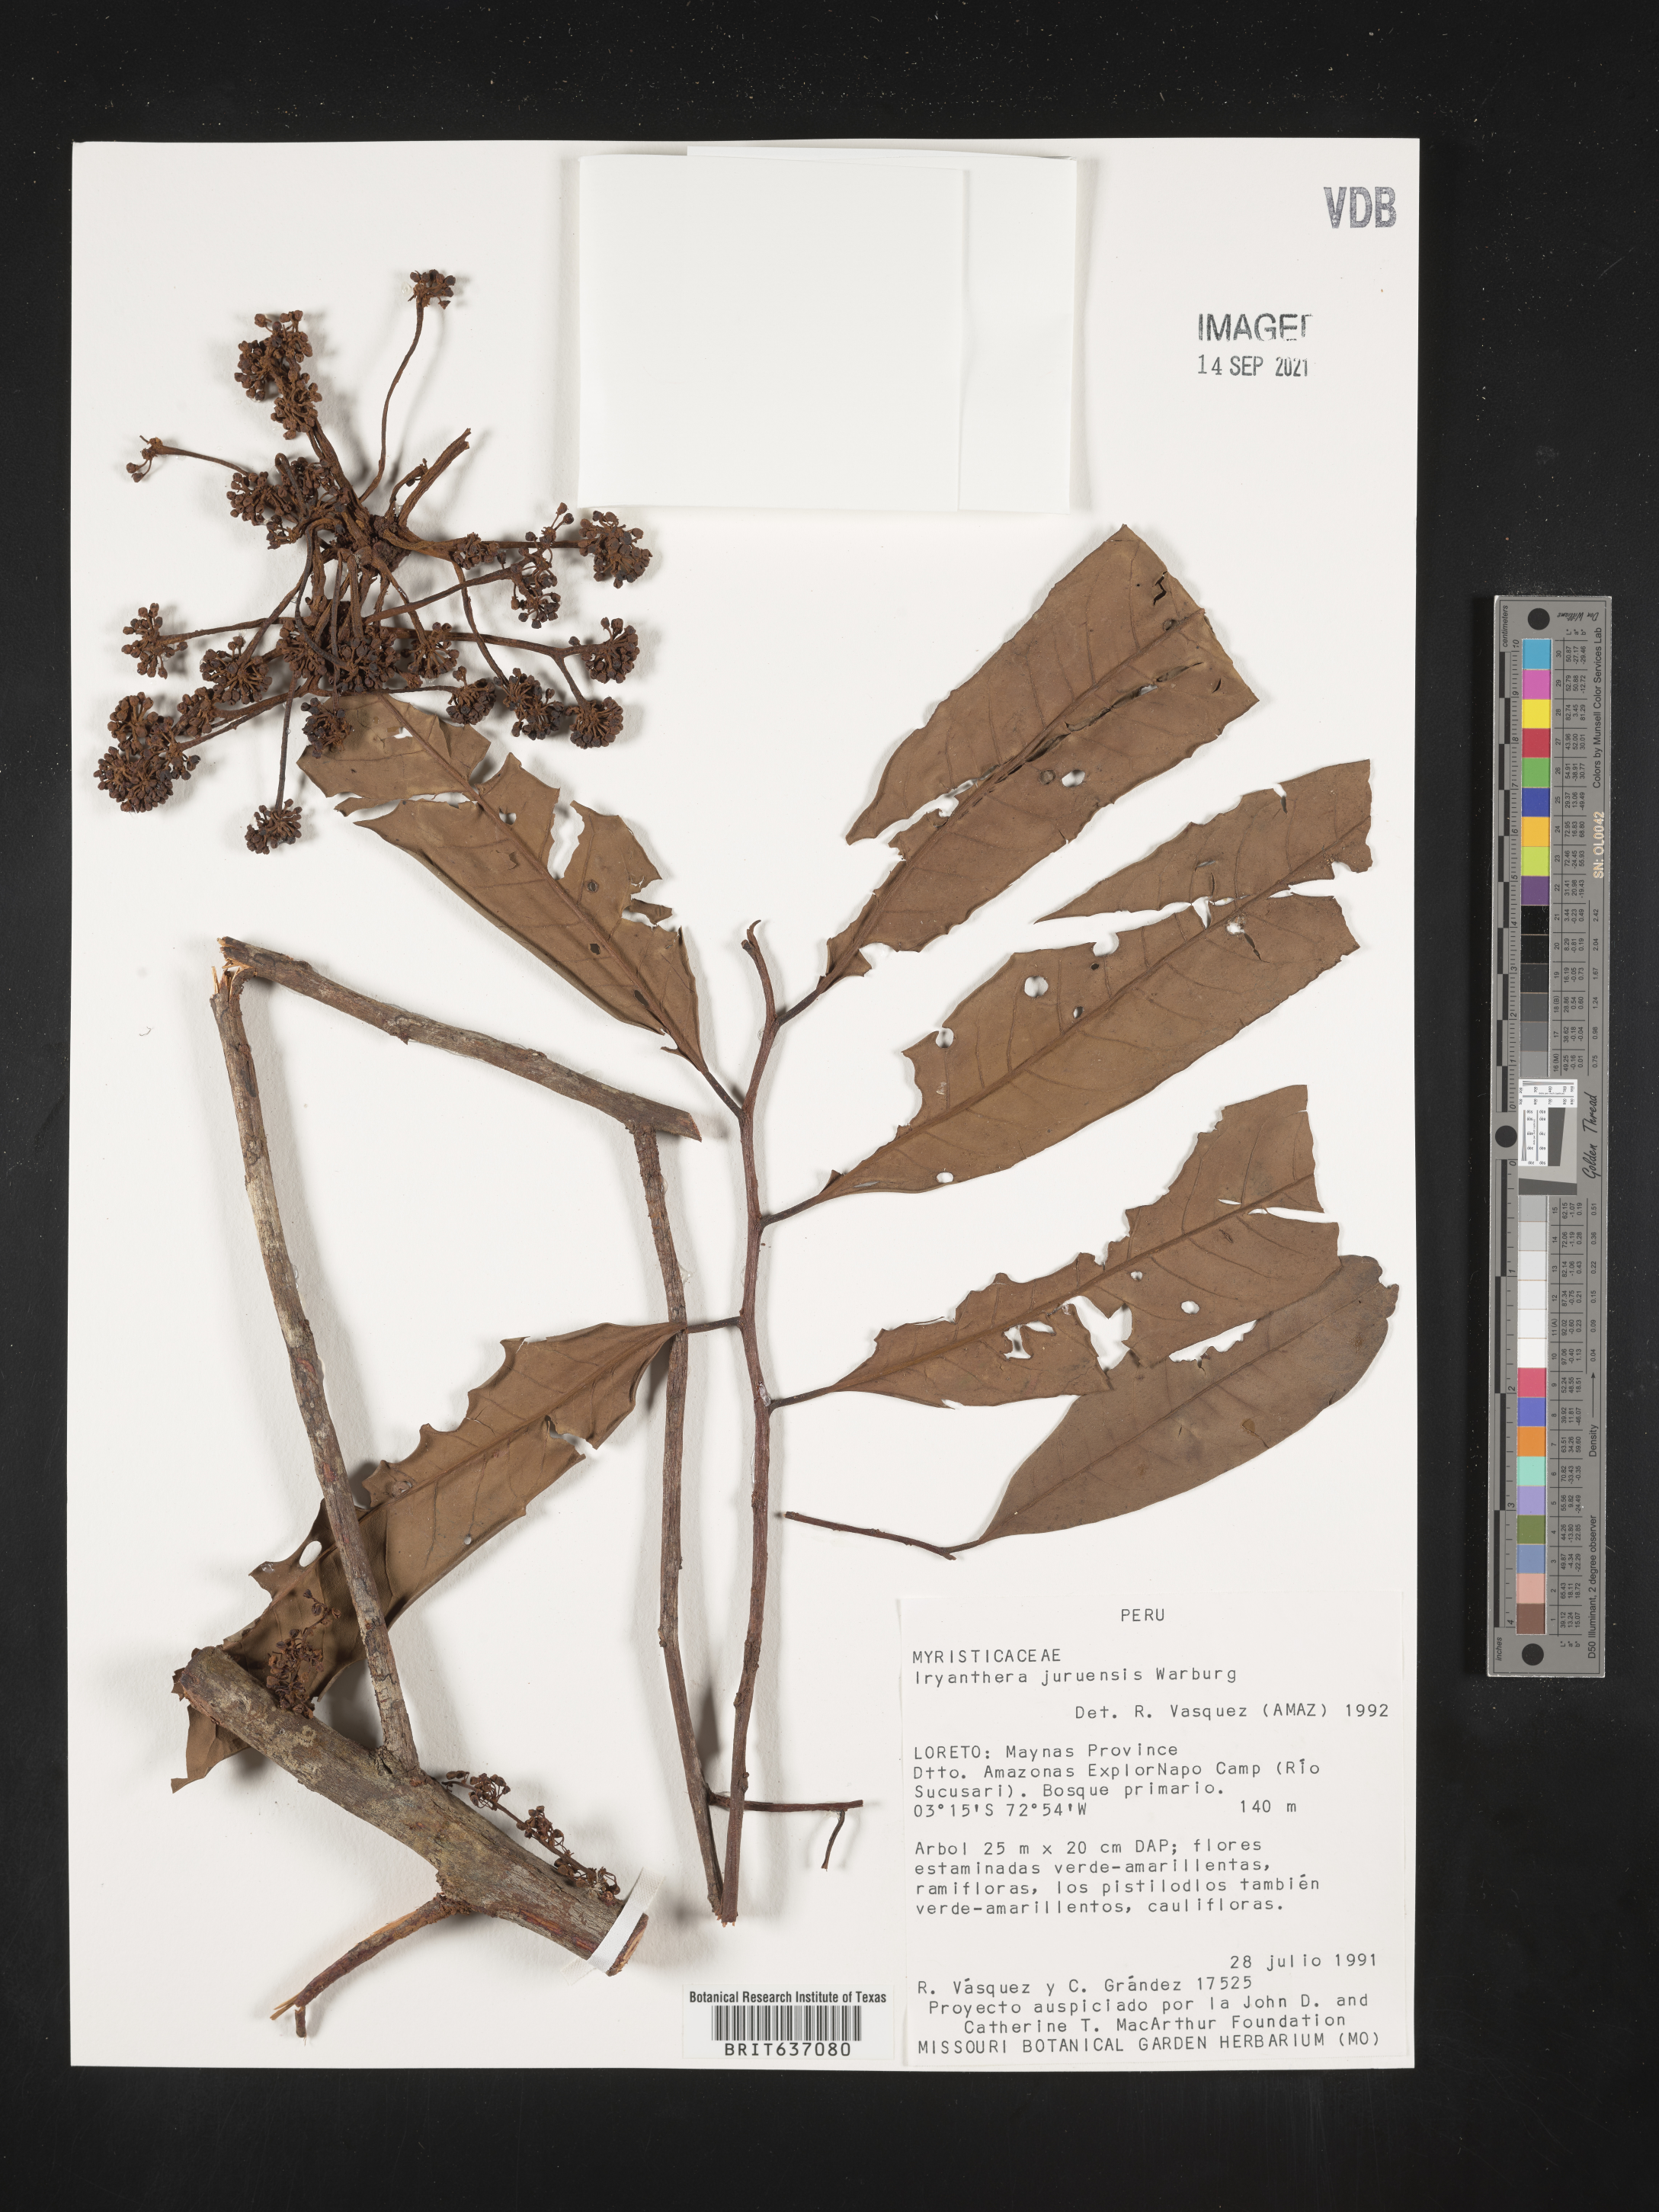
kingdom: Plantae
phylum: Tracheophyta
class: Magnoliopsida
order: Magnoliales
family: Myristicaceae
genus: Iryanthera
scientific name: Iryanthera
